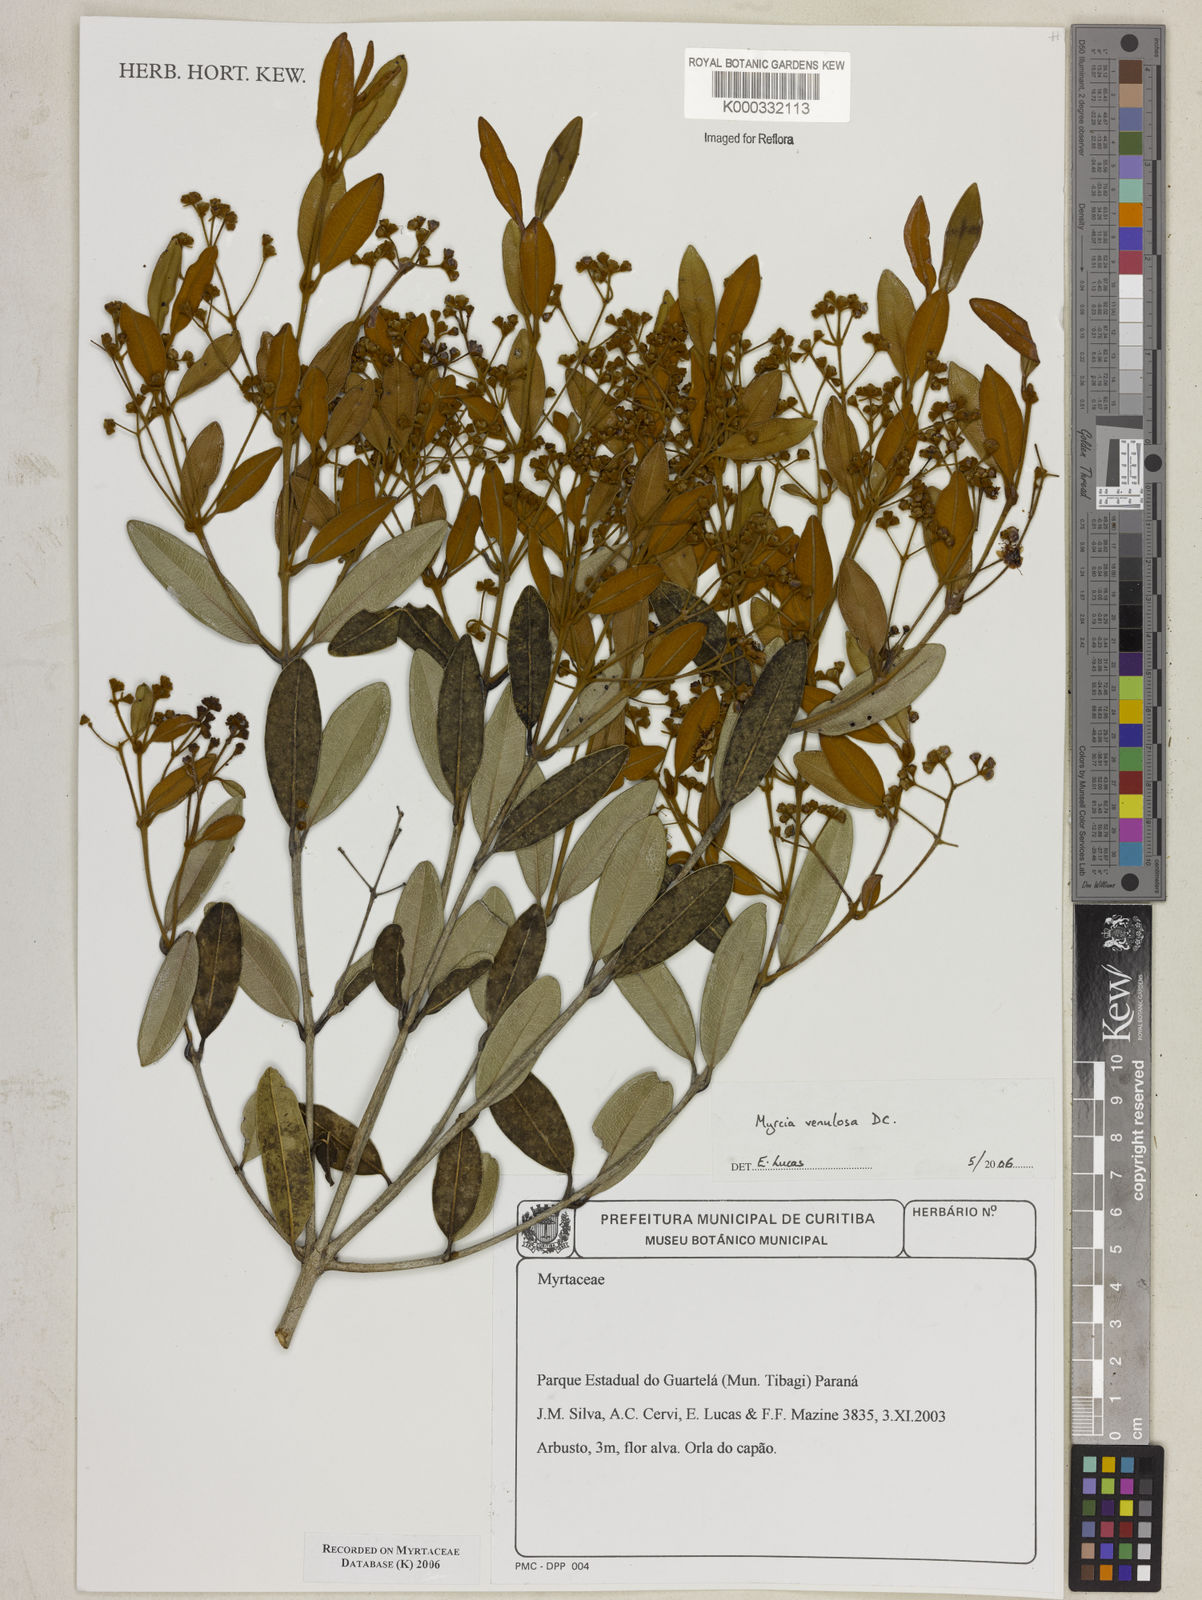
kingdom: Plantae
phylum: Tracheophyta
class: Magnoliopsida
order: Myrtales
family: Myrtaceae
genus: Myrcia
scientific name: Myrcia venulosa
